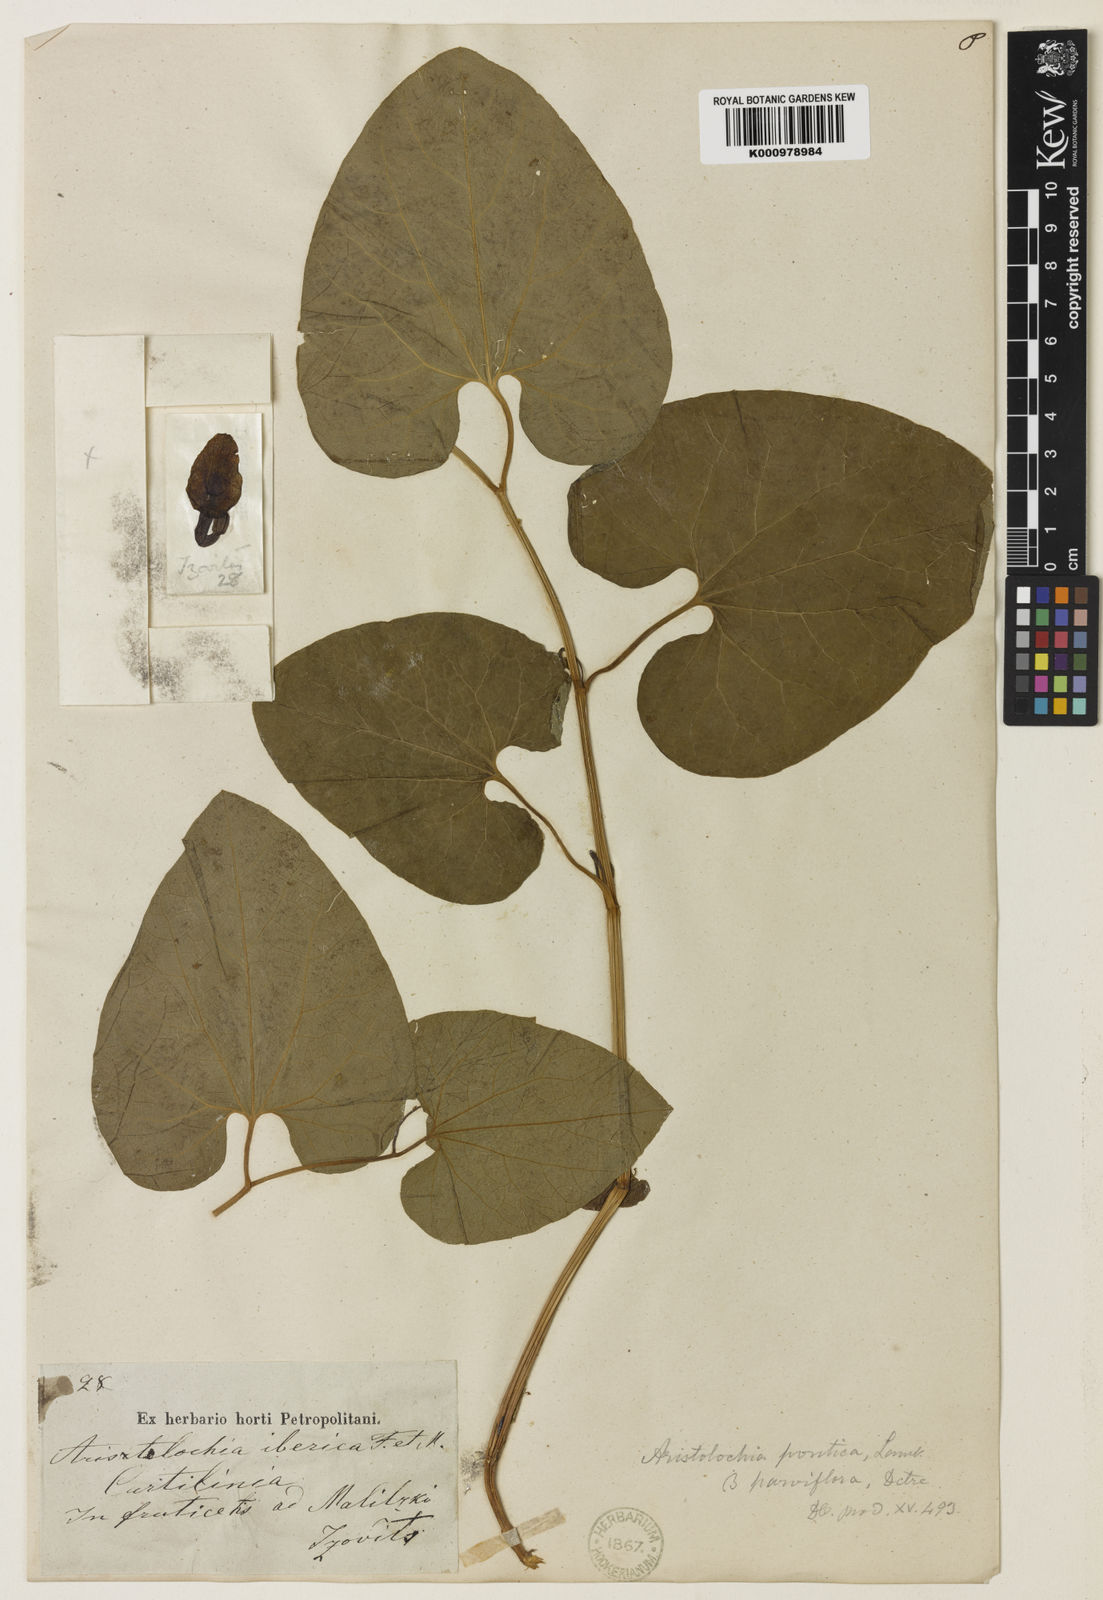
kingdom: Plantae
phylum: Tracheophyta
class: Magnoliopsida
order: Piperales
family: Aristolochiaceae
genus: Aristolochia
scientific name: Aristolochia
